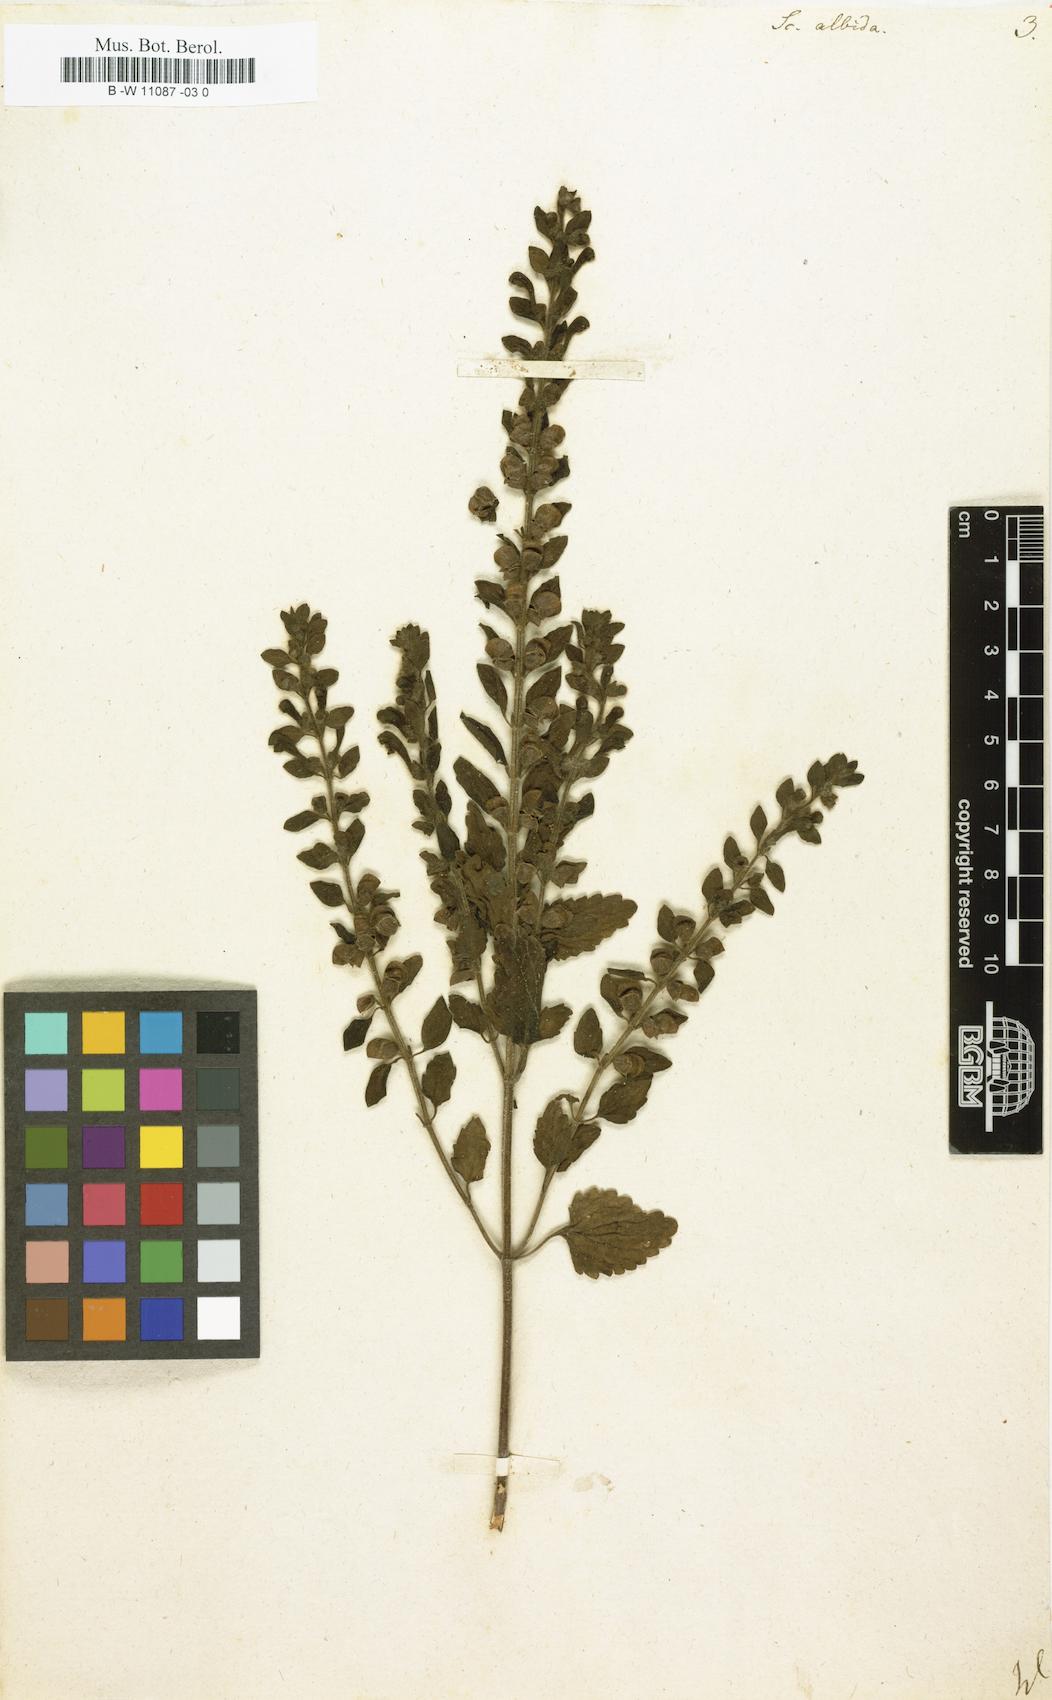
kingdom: Plantae
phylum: Tracheophyta
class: Magnoliopsida
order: Lamiales
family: Lamiaceae
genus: Scutellaria
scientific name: Scutellaria albida
